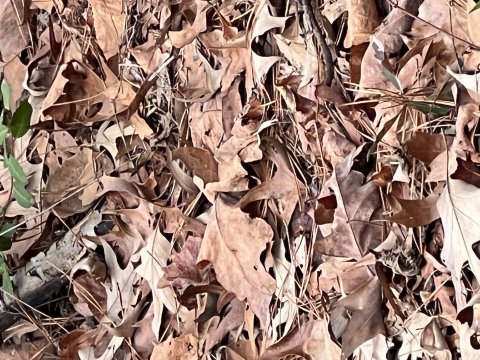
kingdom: Animalia
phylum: Arthropoda
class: Insecta
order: Lepidoptera
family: Nymphalidae
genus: Polygonia
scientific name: Polygonia interrogationis
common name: Question Mark
